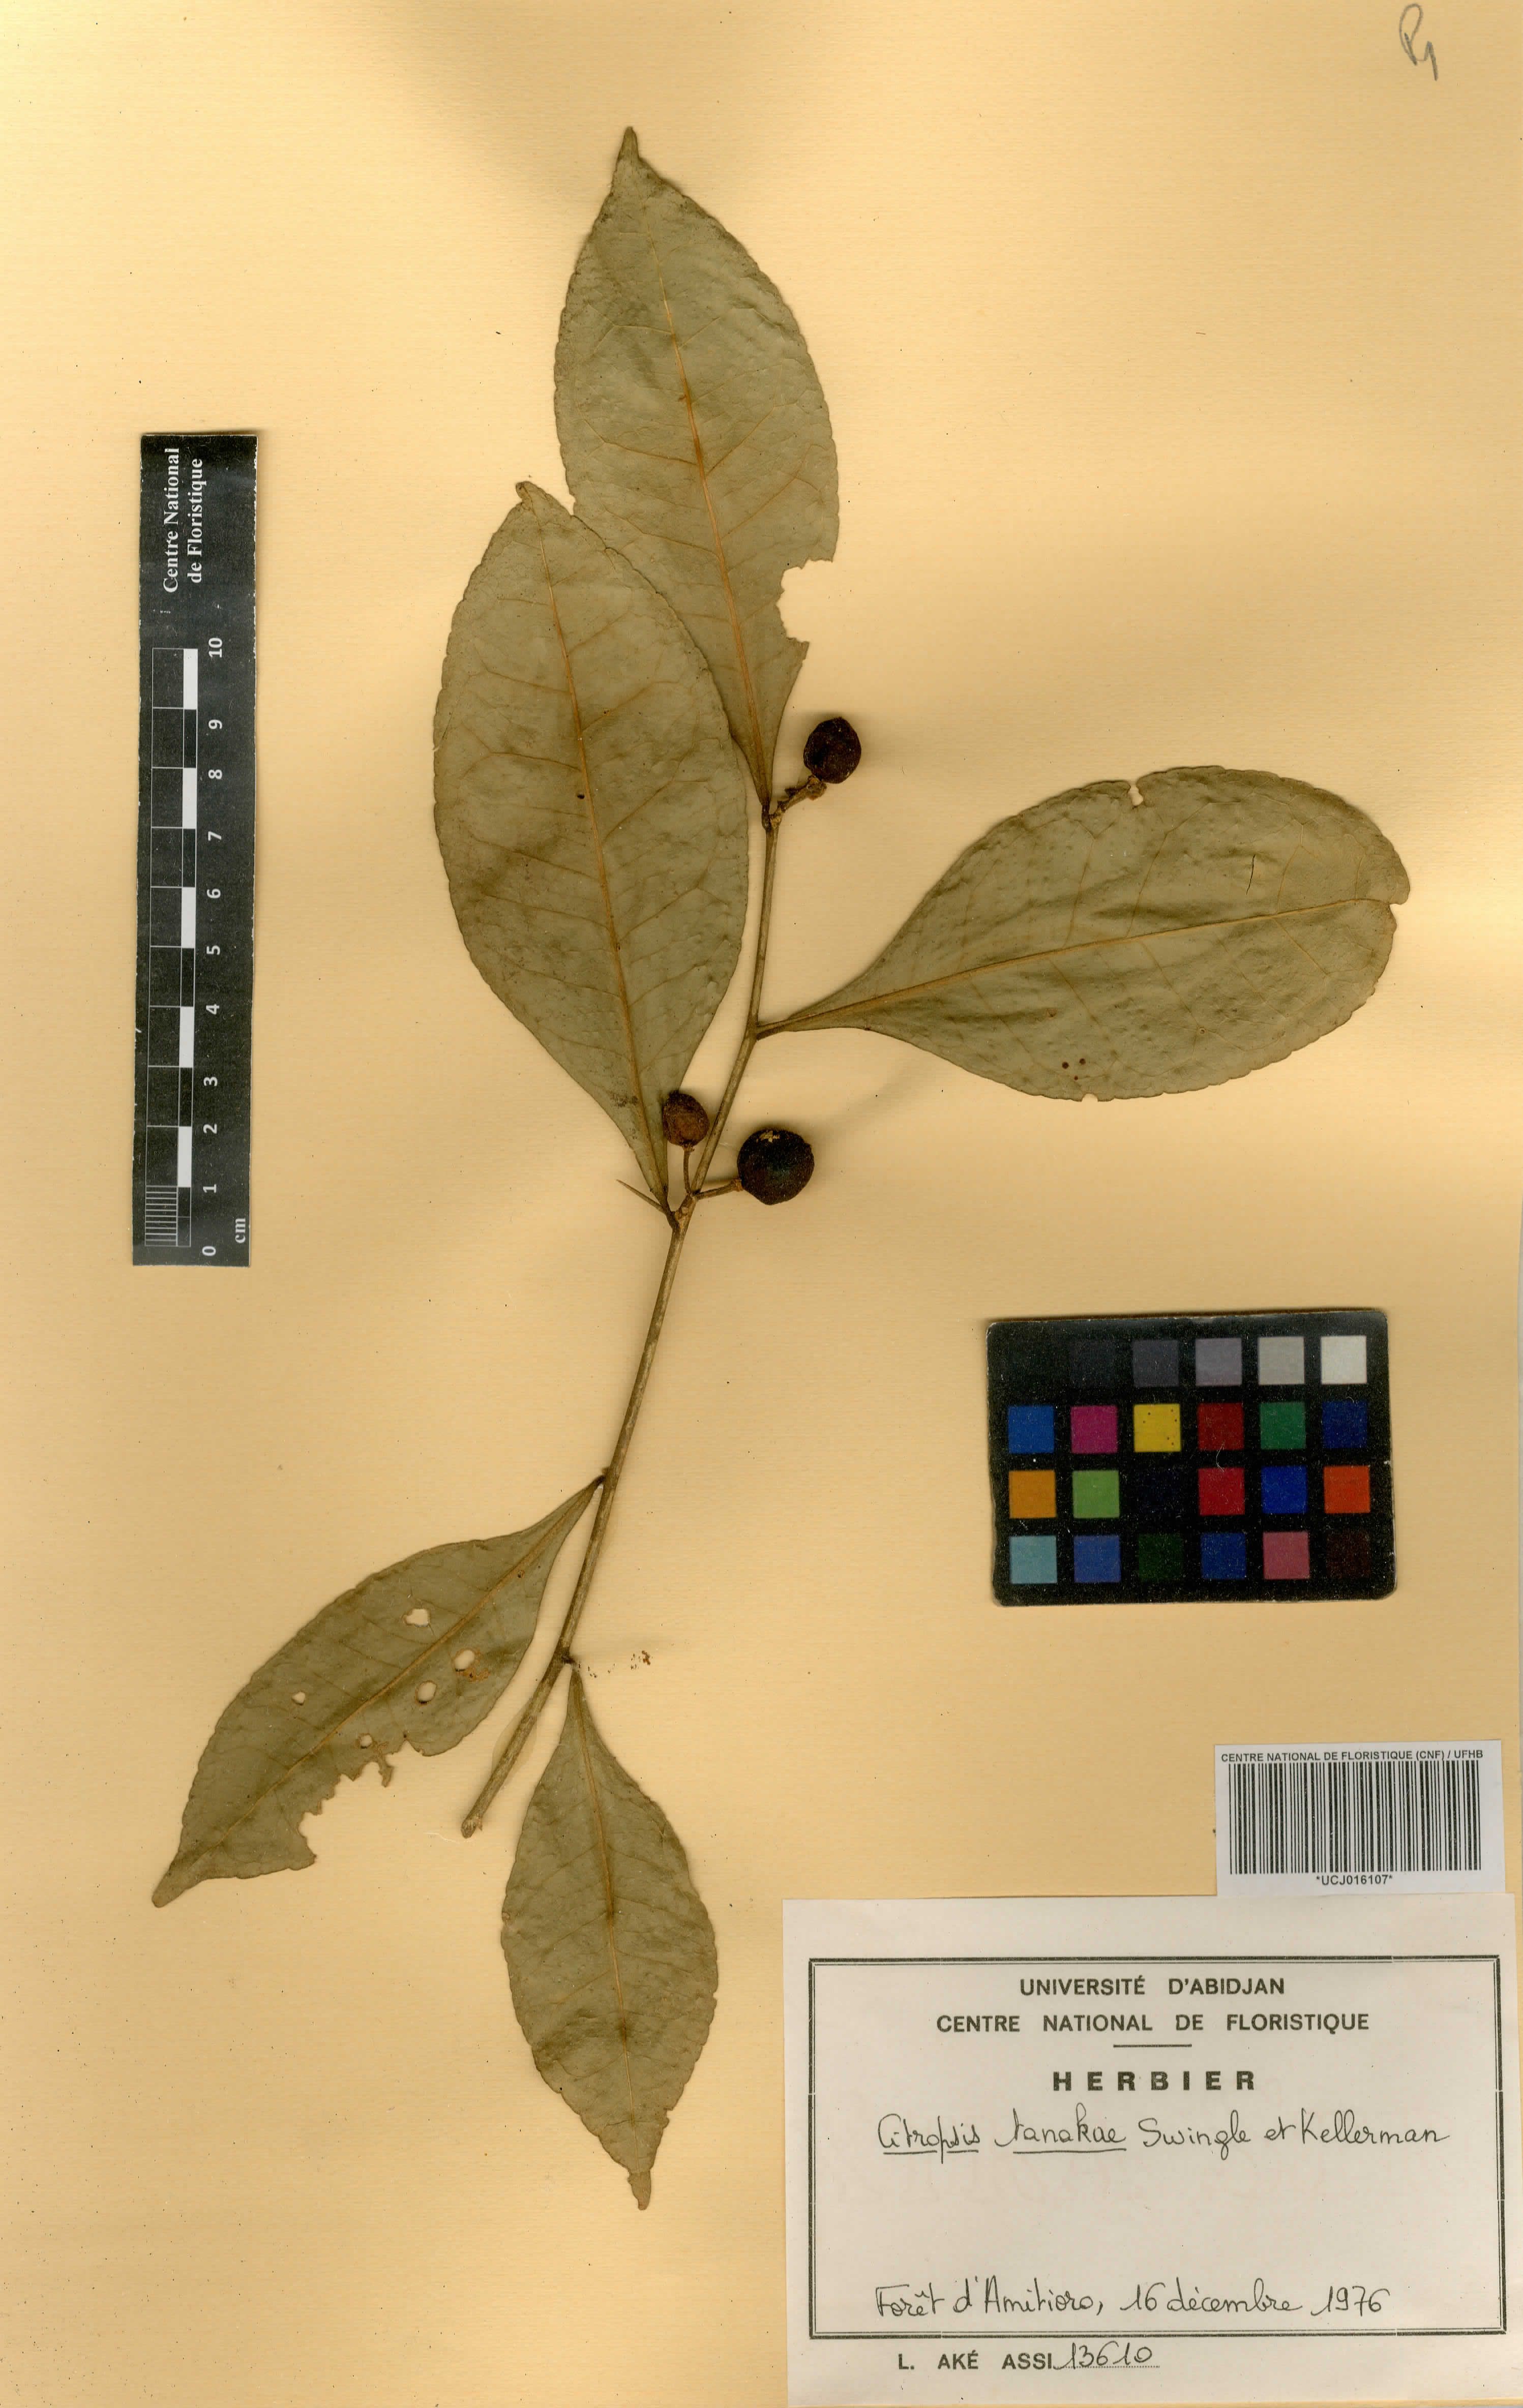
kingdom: Plantae
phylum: Tracheophyta
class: Magnoliopsida
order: Sapindales
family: Rutaceae
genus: Citropsis
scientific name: Citropsis
